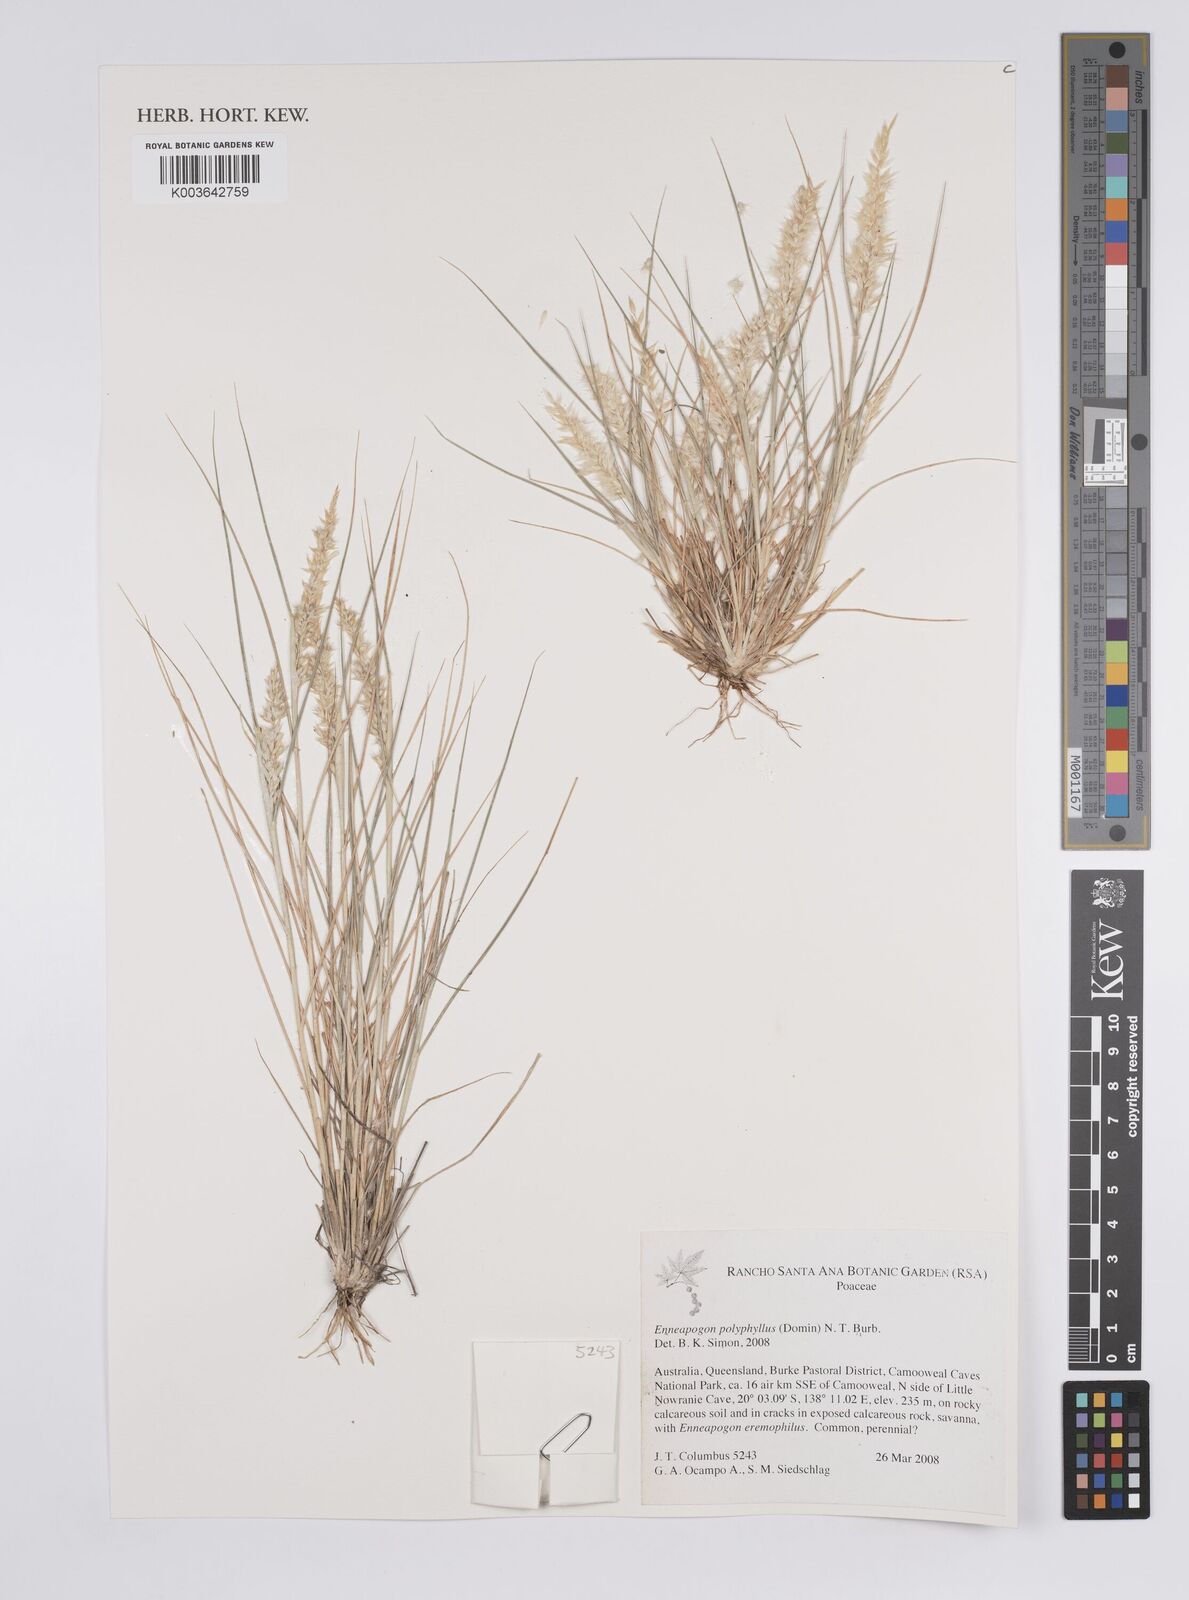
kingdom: Plantae
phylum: Tracheophyta
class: Liliopsida
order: Poales
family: Poaceae
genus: Enneapogon
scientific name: Enneapogon polyphyllus
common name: Leafy nineawn
